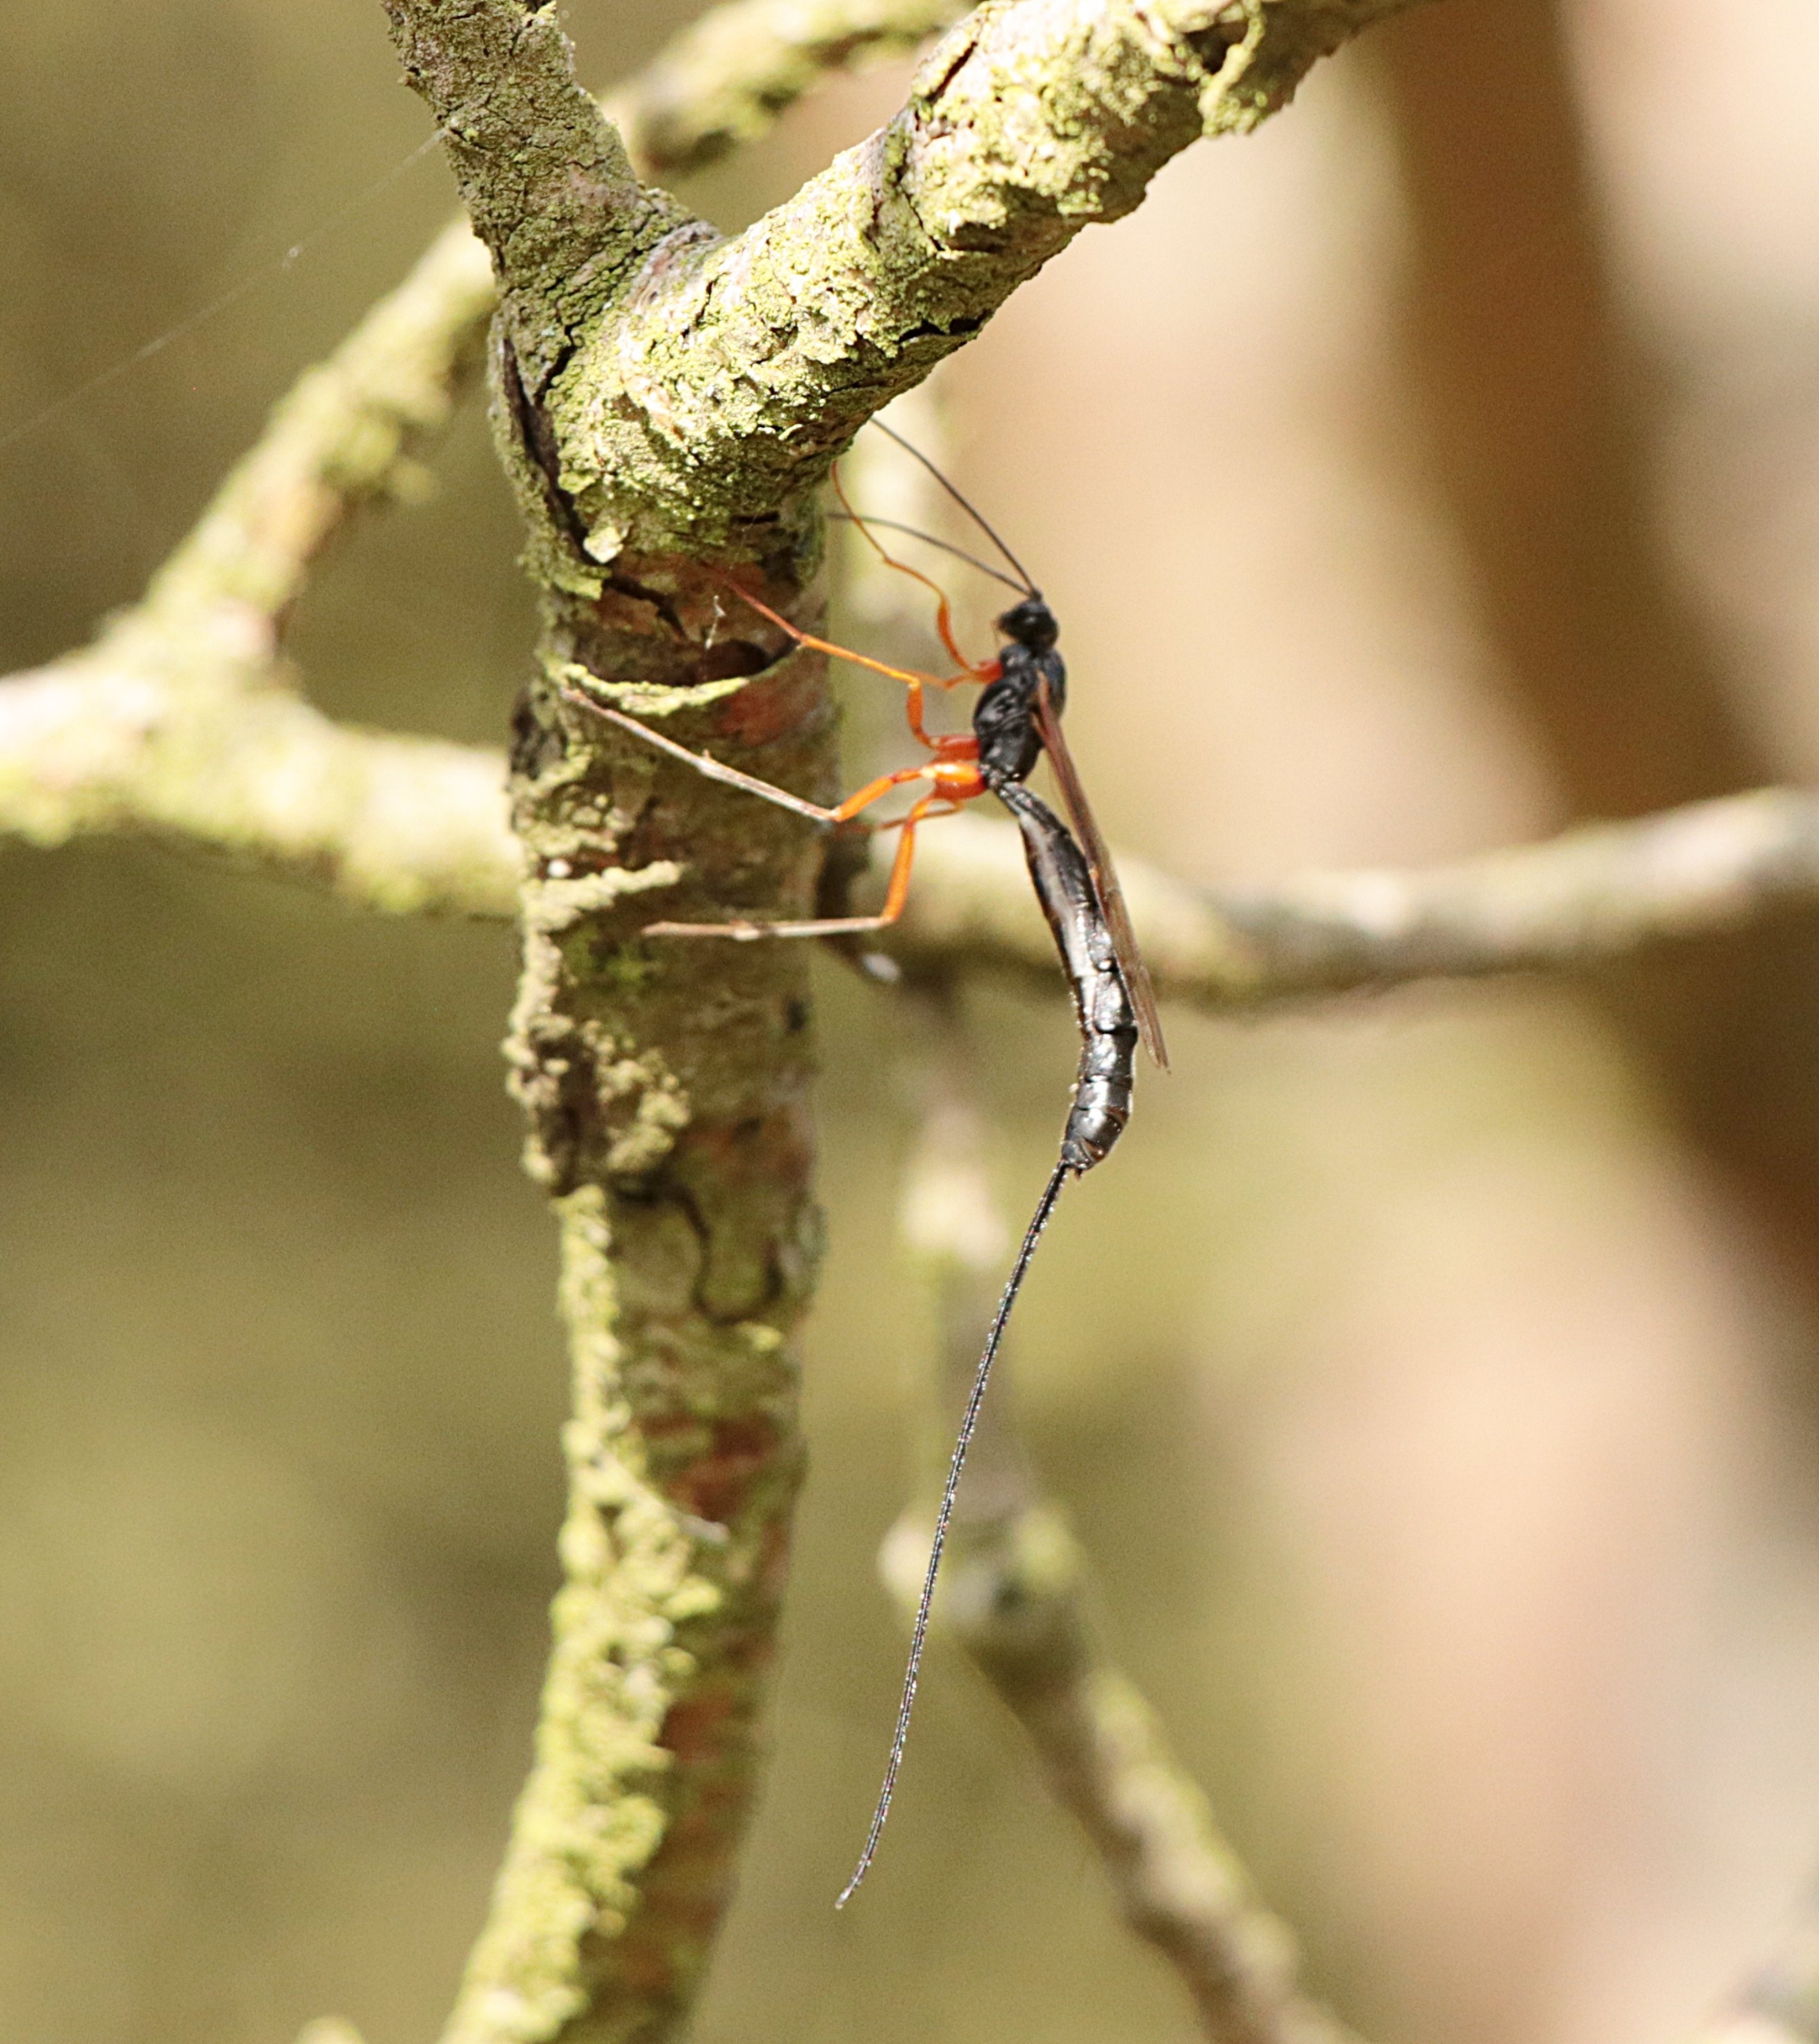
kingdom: Animalia
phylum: Arthropoda
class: Insecta
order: Hymenoptera
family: Ichneumonidae
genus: Dolichomitus
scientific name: Dolichomitus
